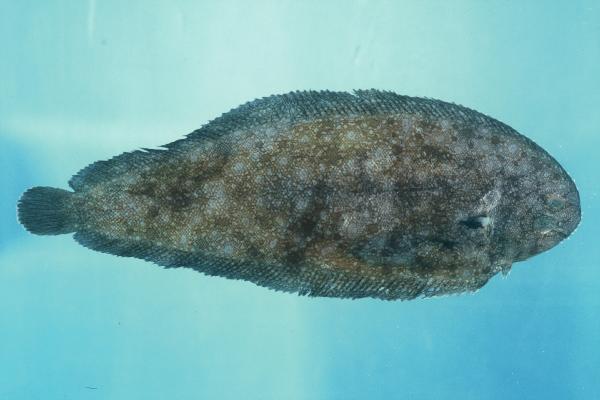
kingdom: Animalia
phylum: Chordata
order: Pleuronectiformes
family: Soleidae
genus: Solea
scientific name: Solea elongata
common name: Elongate sole
